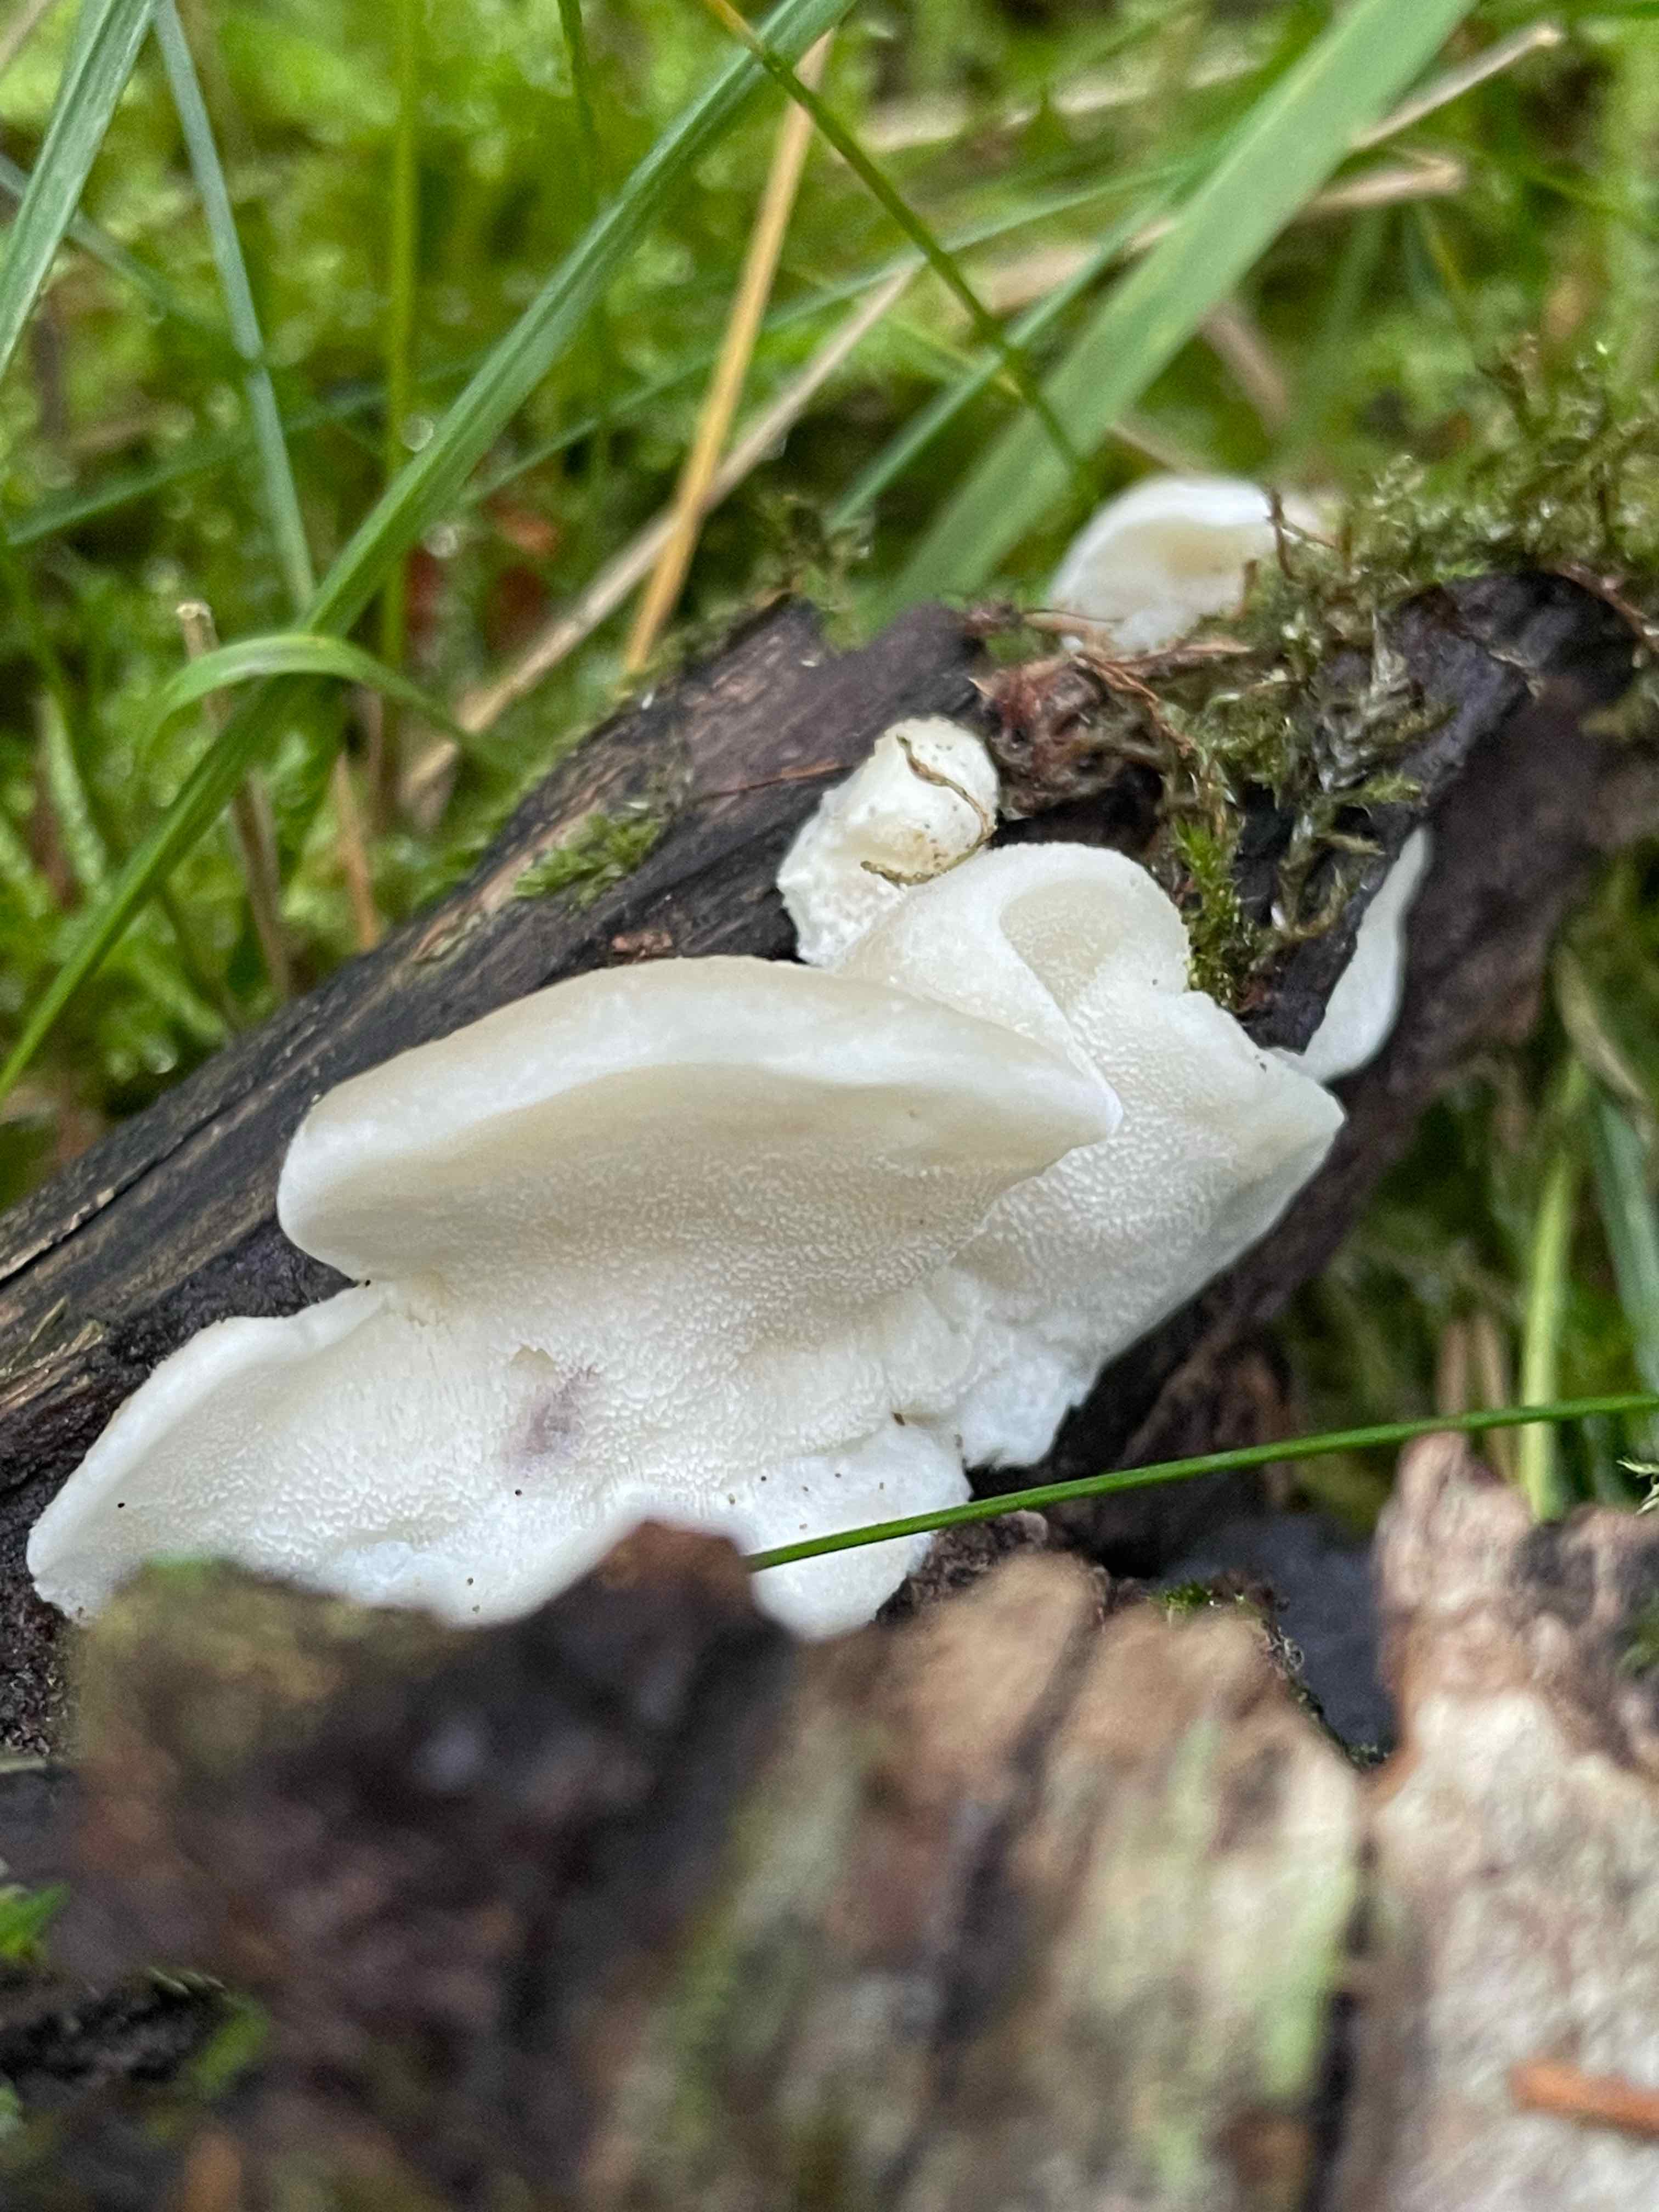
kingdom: Fungi
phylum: Basidiomycota
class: Agaricomycetes
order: Polyporales
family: Incrustoporiaceae
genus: Tyromyces
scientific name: Tyromyces lacteus
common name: mælkehvid kødporesvamp
